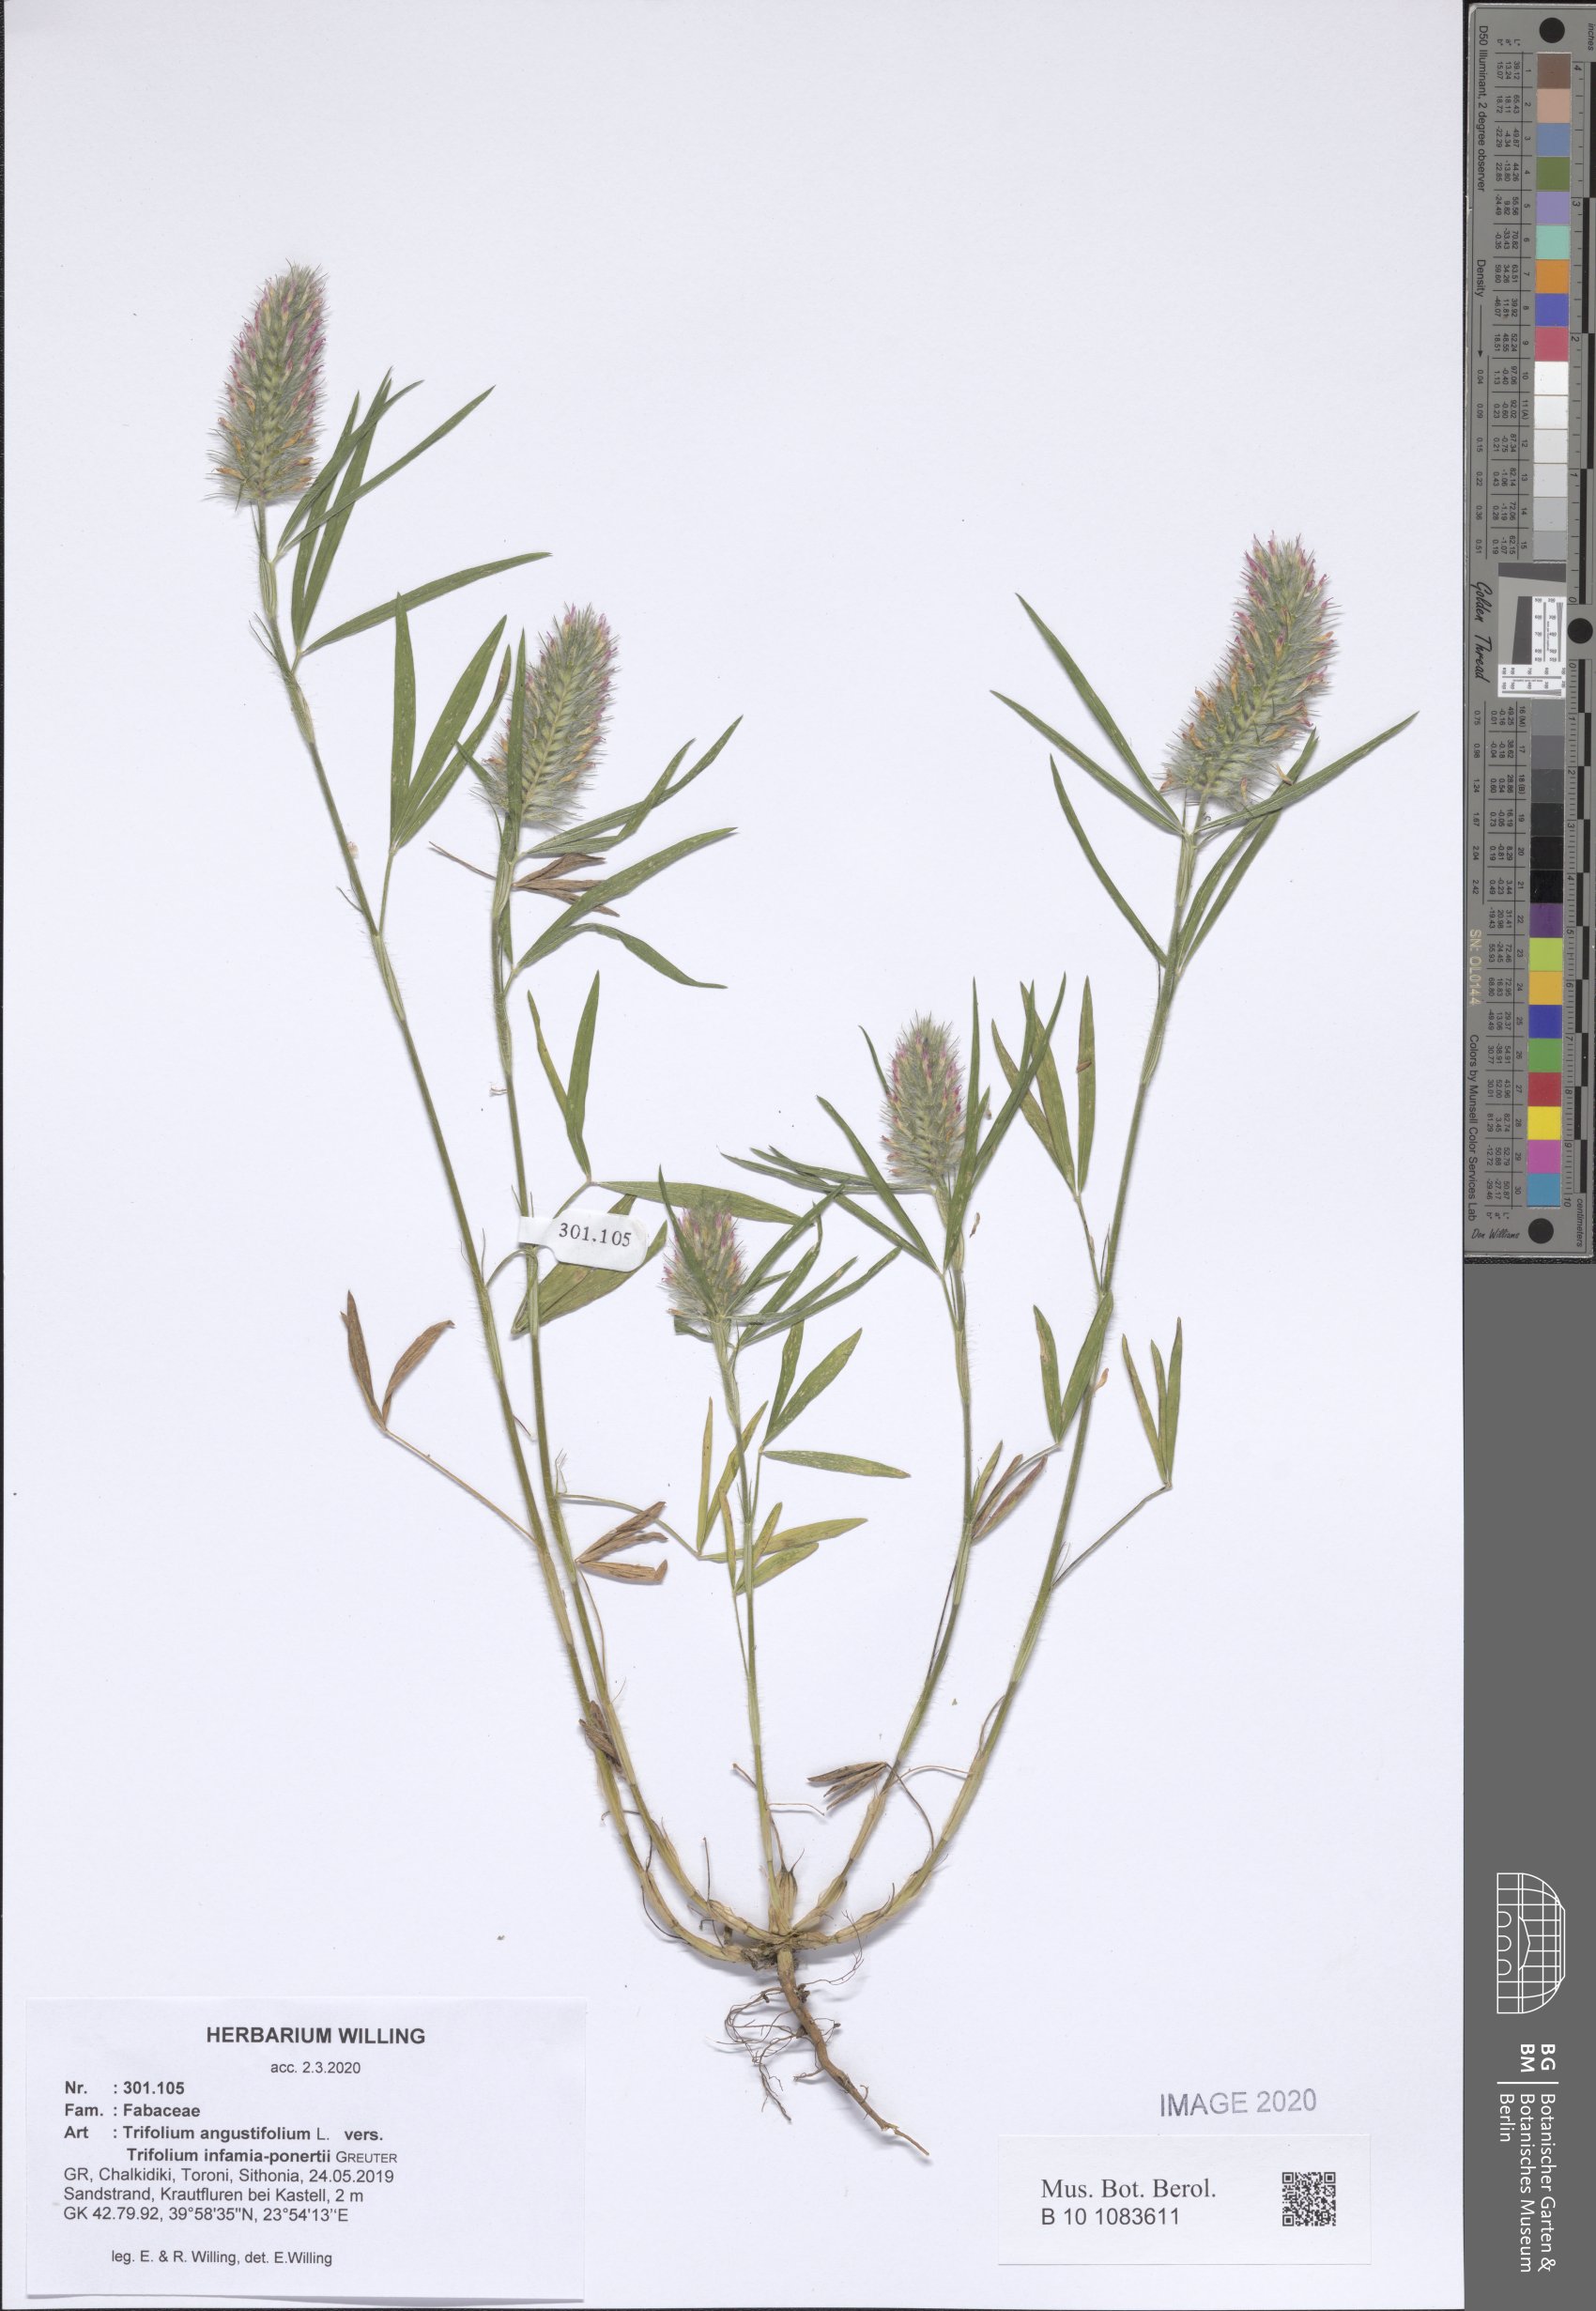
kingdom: Plantae
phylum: Tracheophyta
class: Magnoliopsida
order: Fabales
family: Fabaceae
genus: Trifolium
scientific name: Trifolium angustifolium
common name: Narrow clover
